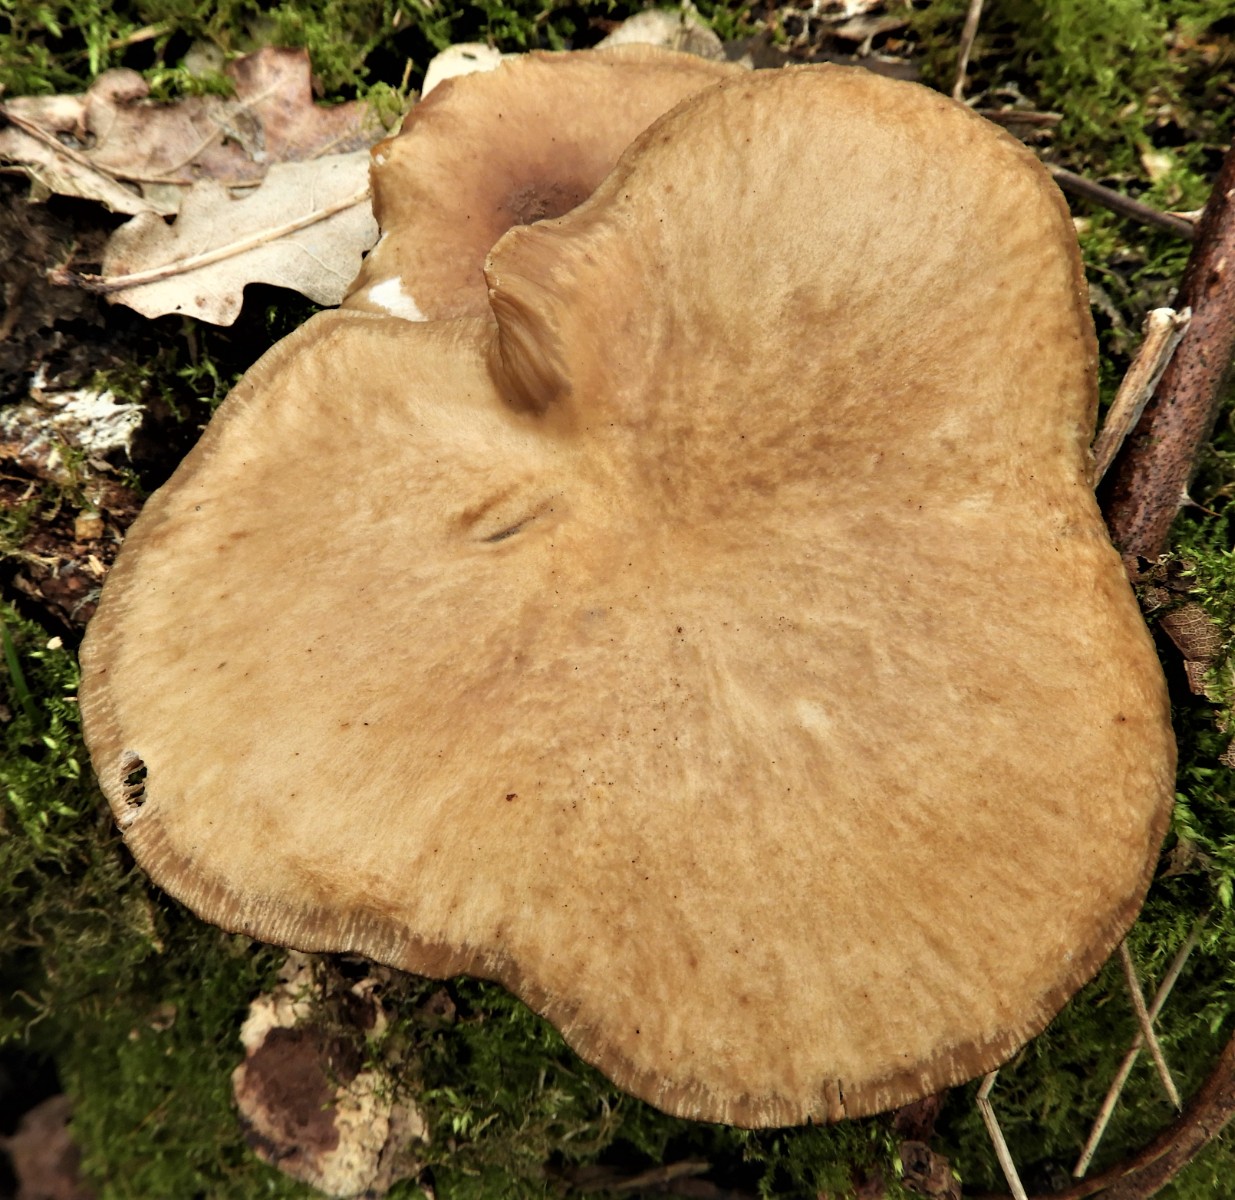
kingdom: Fungi
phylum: Basidiomycota
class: Agaricomycetes
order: Agaricales
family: Pleurotaceae
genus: Pleurotus
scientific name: Pleurotus ostreatus
